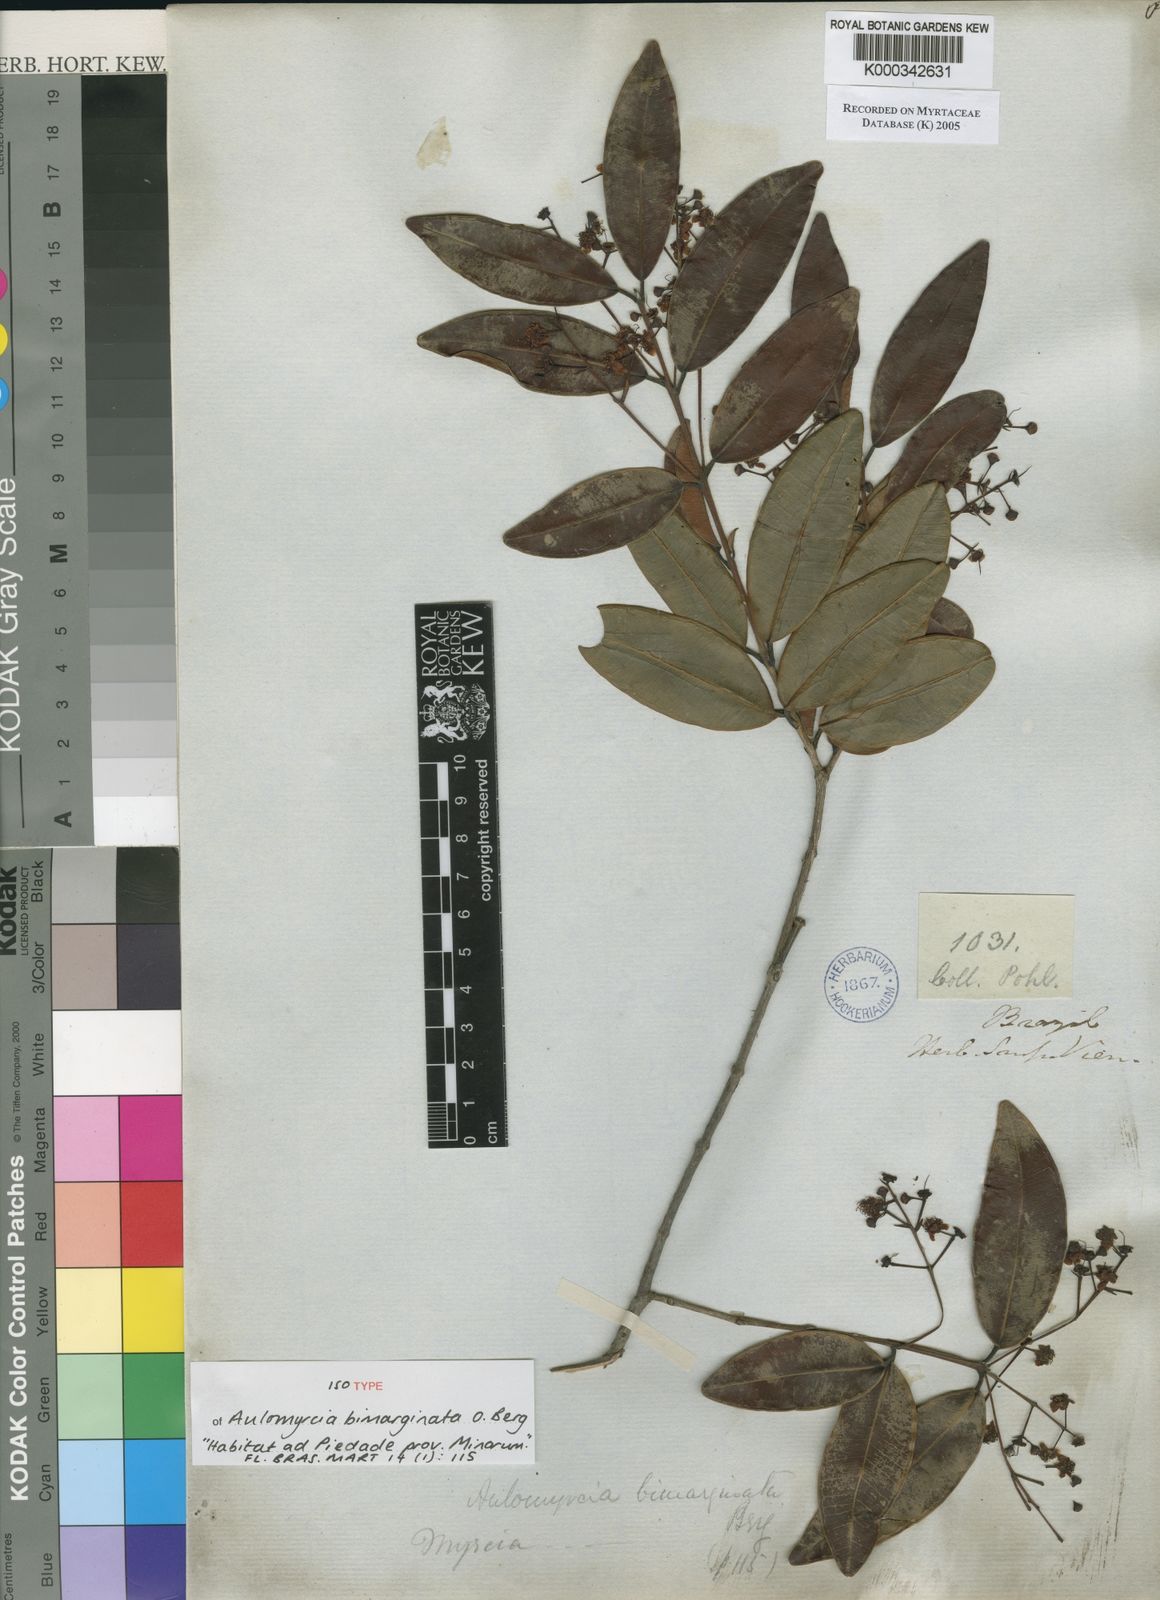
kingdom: Plantae
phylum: Tracheophyta
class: Magnoliopsida
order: Myrtales
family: Myrtaceae
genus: Myrcia
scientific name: Myrcia guianensis
